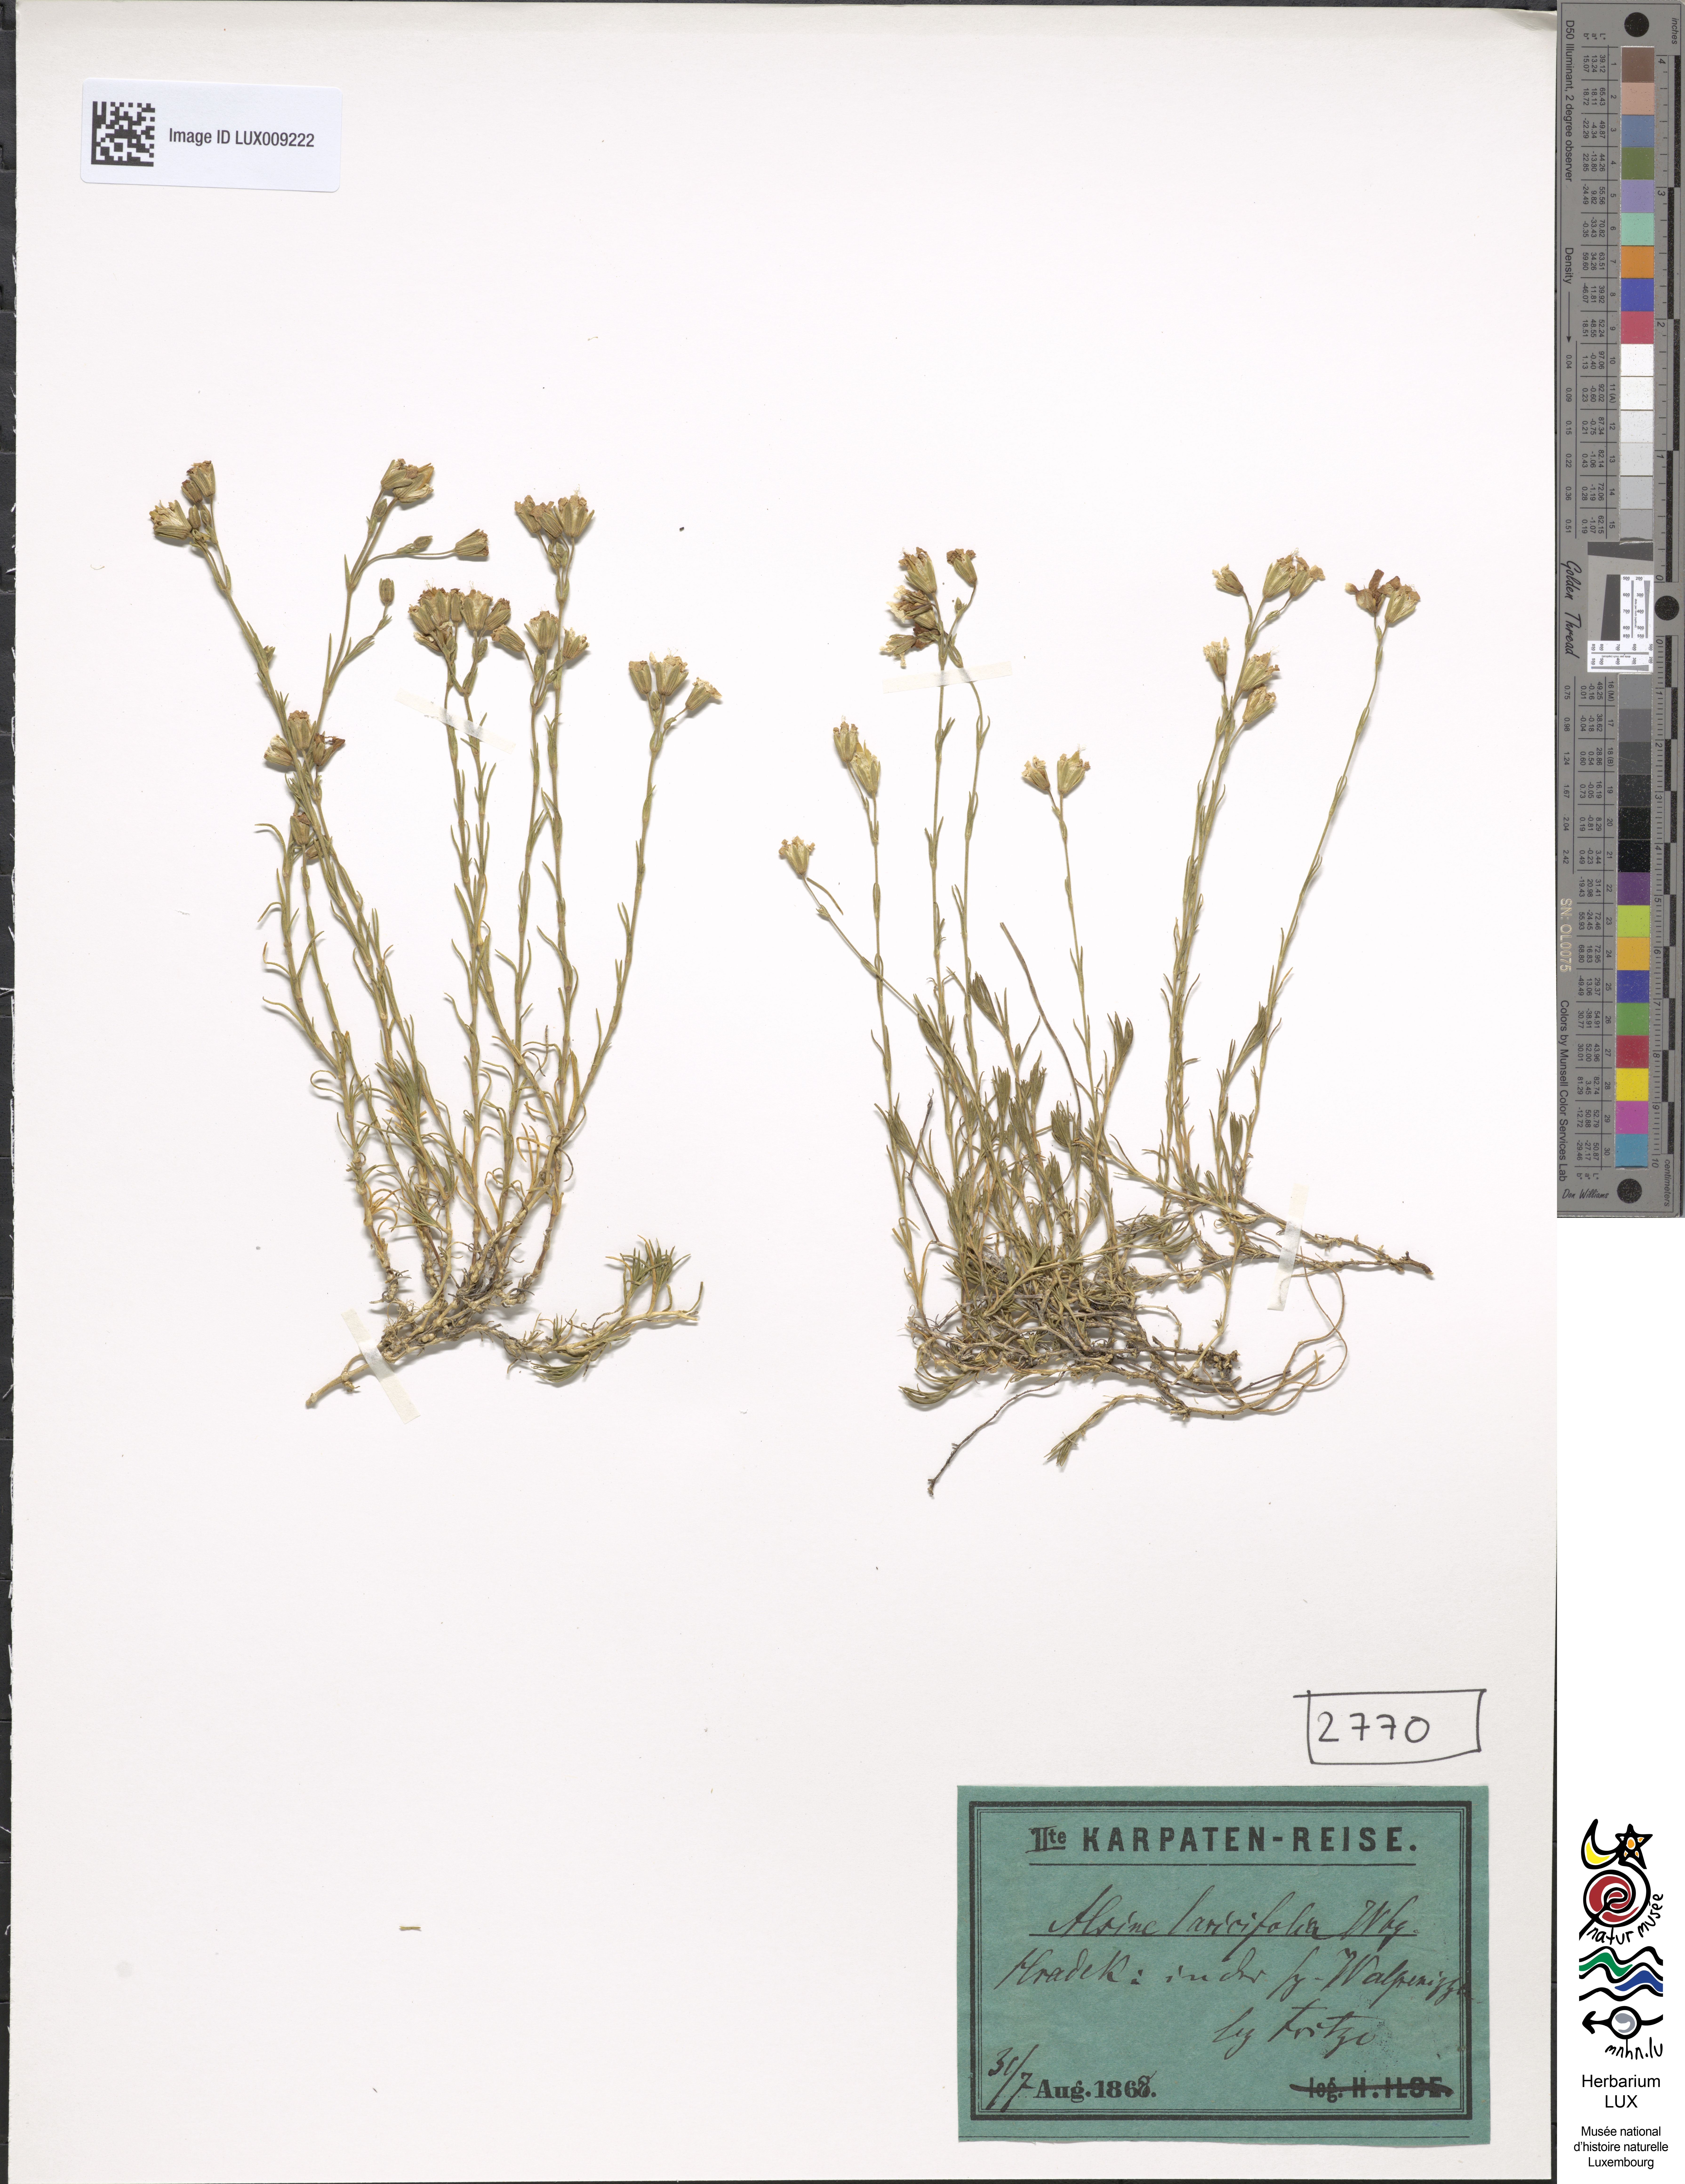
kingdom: Plantae
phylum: Tracheophyta
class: Magnoliopsida
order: Caryophyllales
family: Caryophyllaceae
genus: Cherleria
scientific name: Cherleria laricifolia
